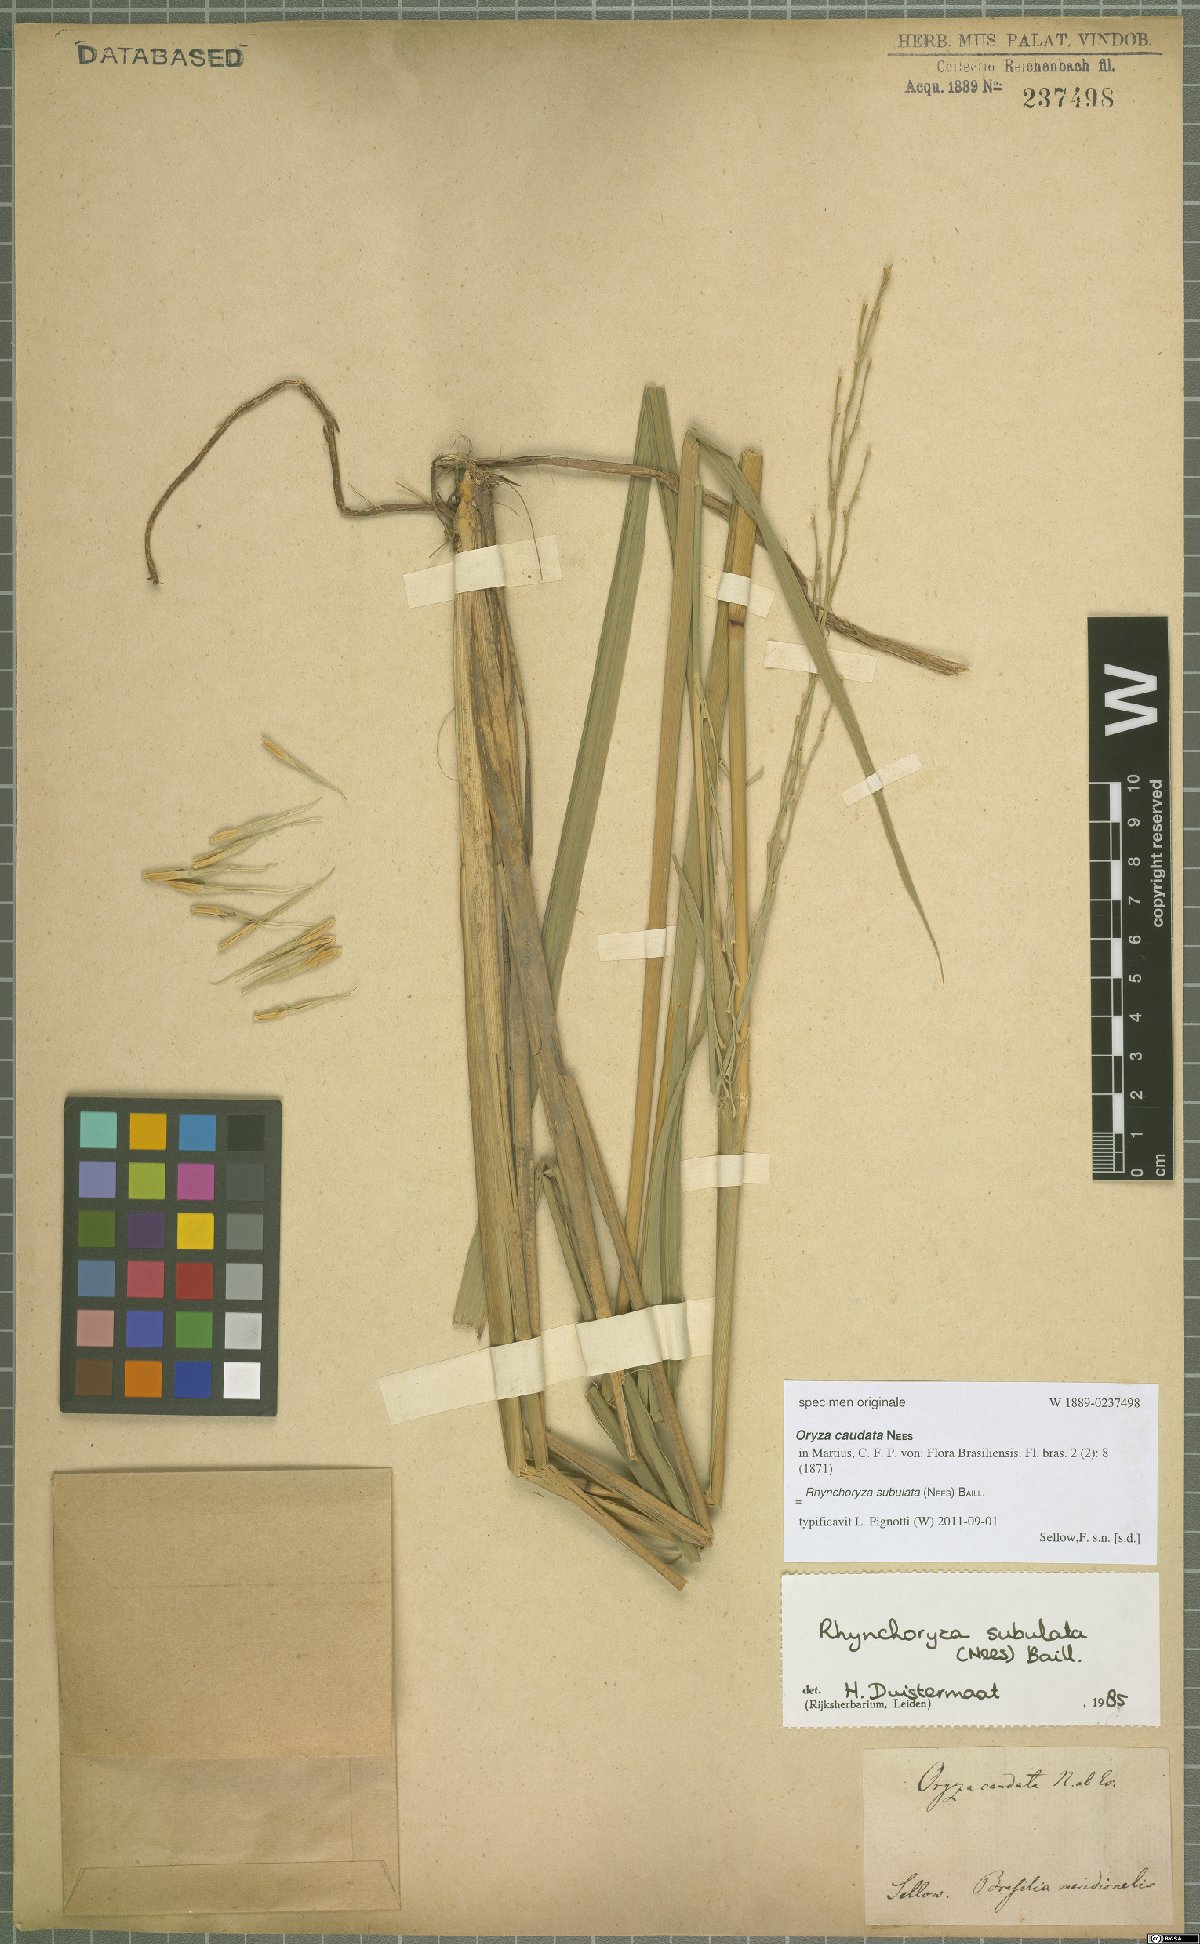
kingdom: Plantae
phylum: Tracheophyta
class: Liliopsida
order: Poales
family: Poaceae
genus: Rhynchoryza
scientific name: Rhynchoryza subulata
